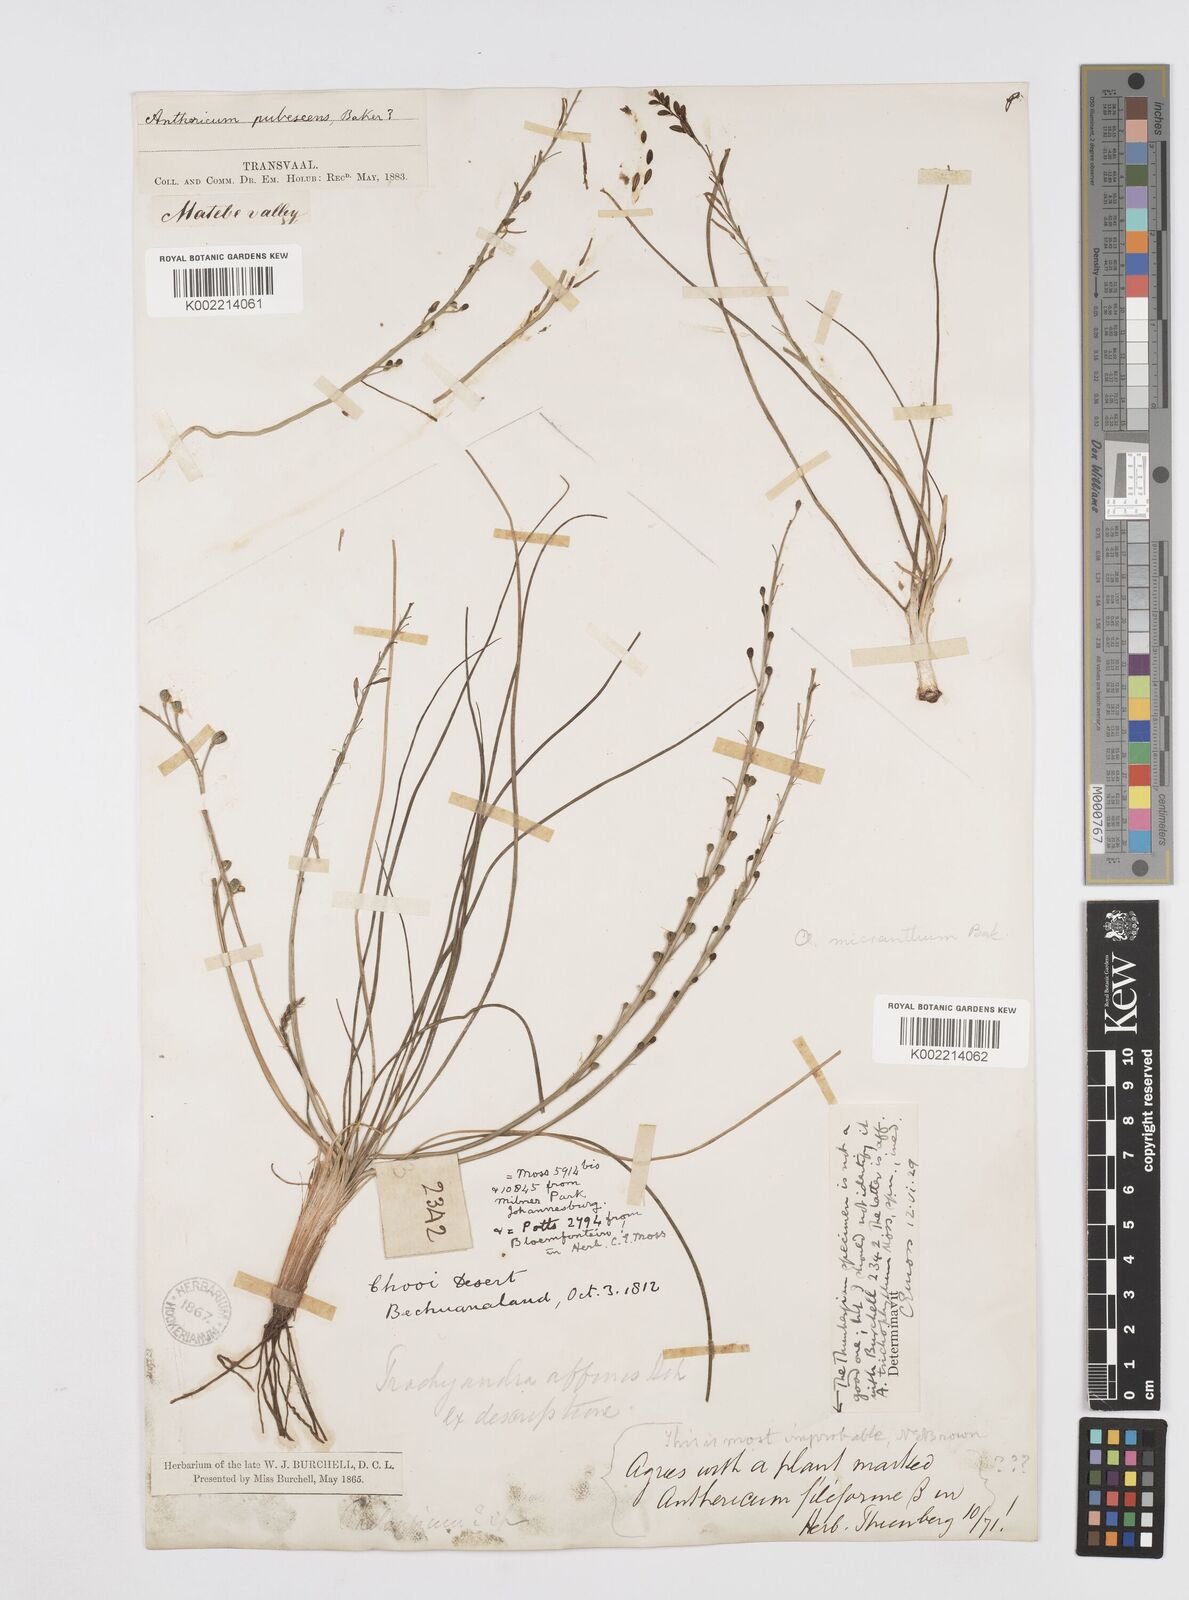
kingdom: Plantae
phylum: Tracheophyta
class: Liliopsida
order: Asparagales
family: Asphodelaceae
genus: Trachyandra
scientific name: Trachyandra
